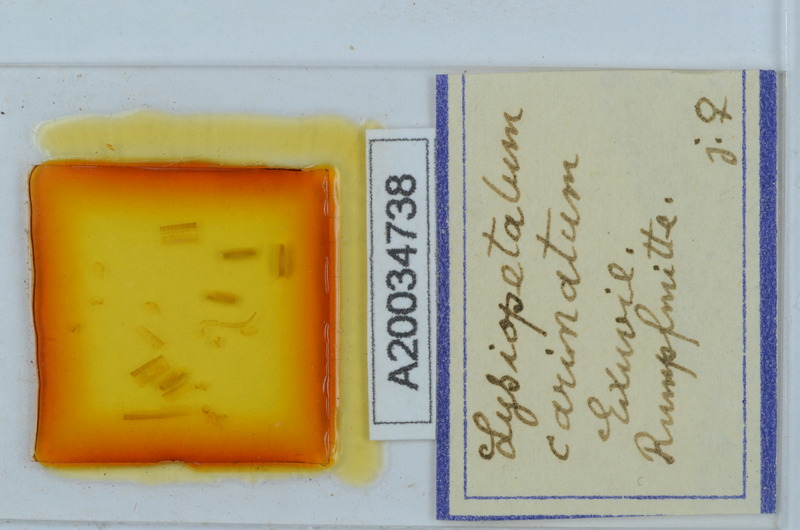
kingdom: Animalia
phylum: Arthropoda
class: Diplopoda
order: Callipodida
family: Schizopetalidae
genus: Acanthopetalum
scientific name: Acanthopetalum carinatum
